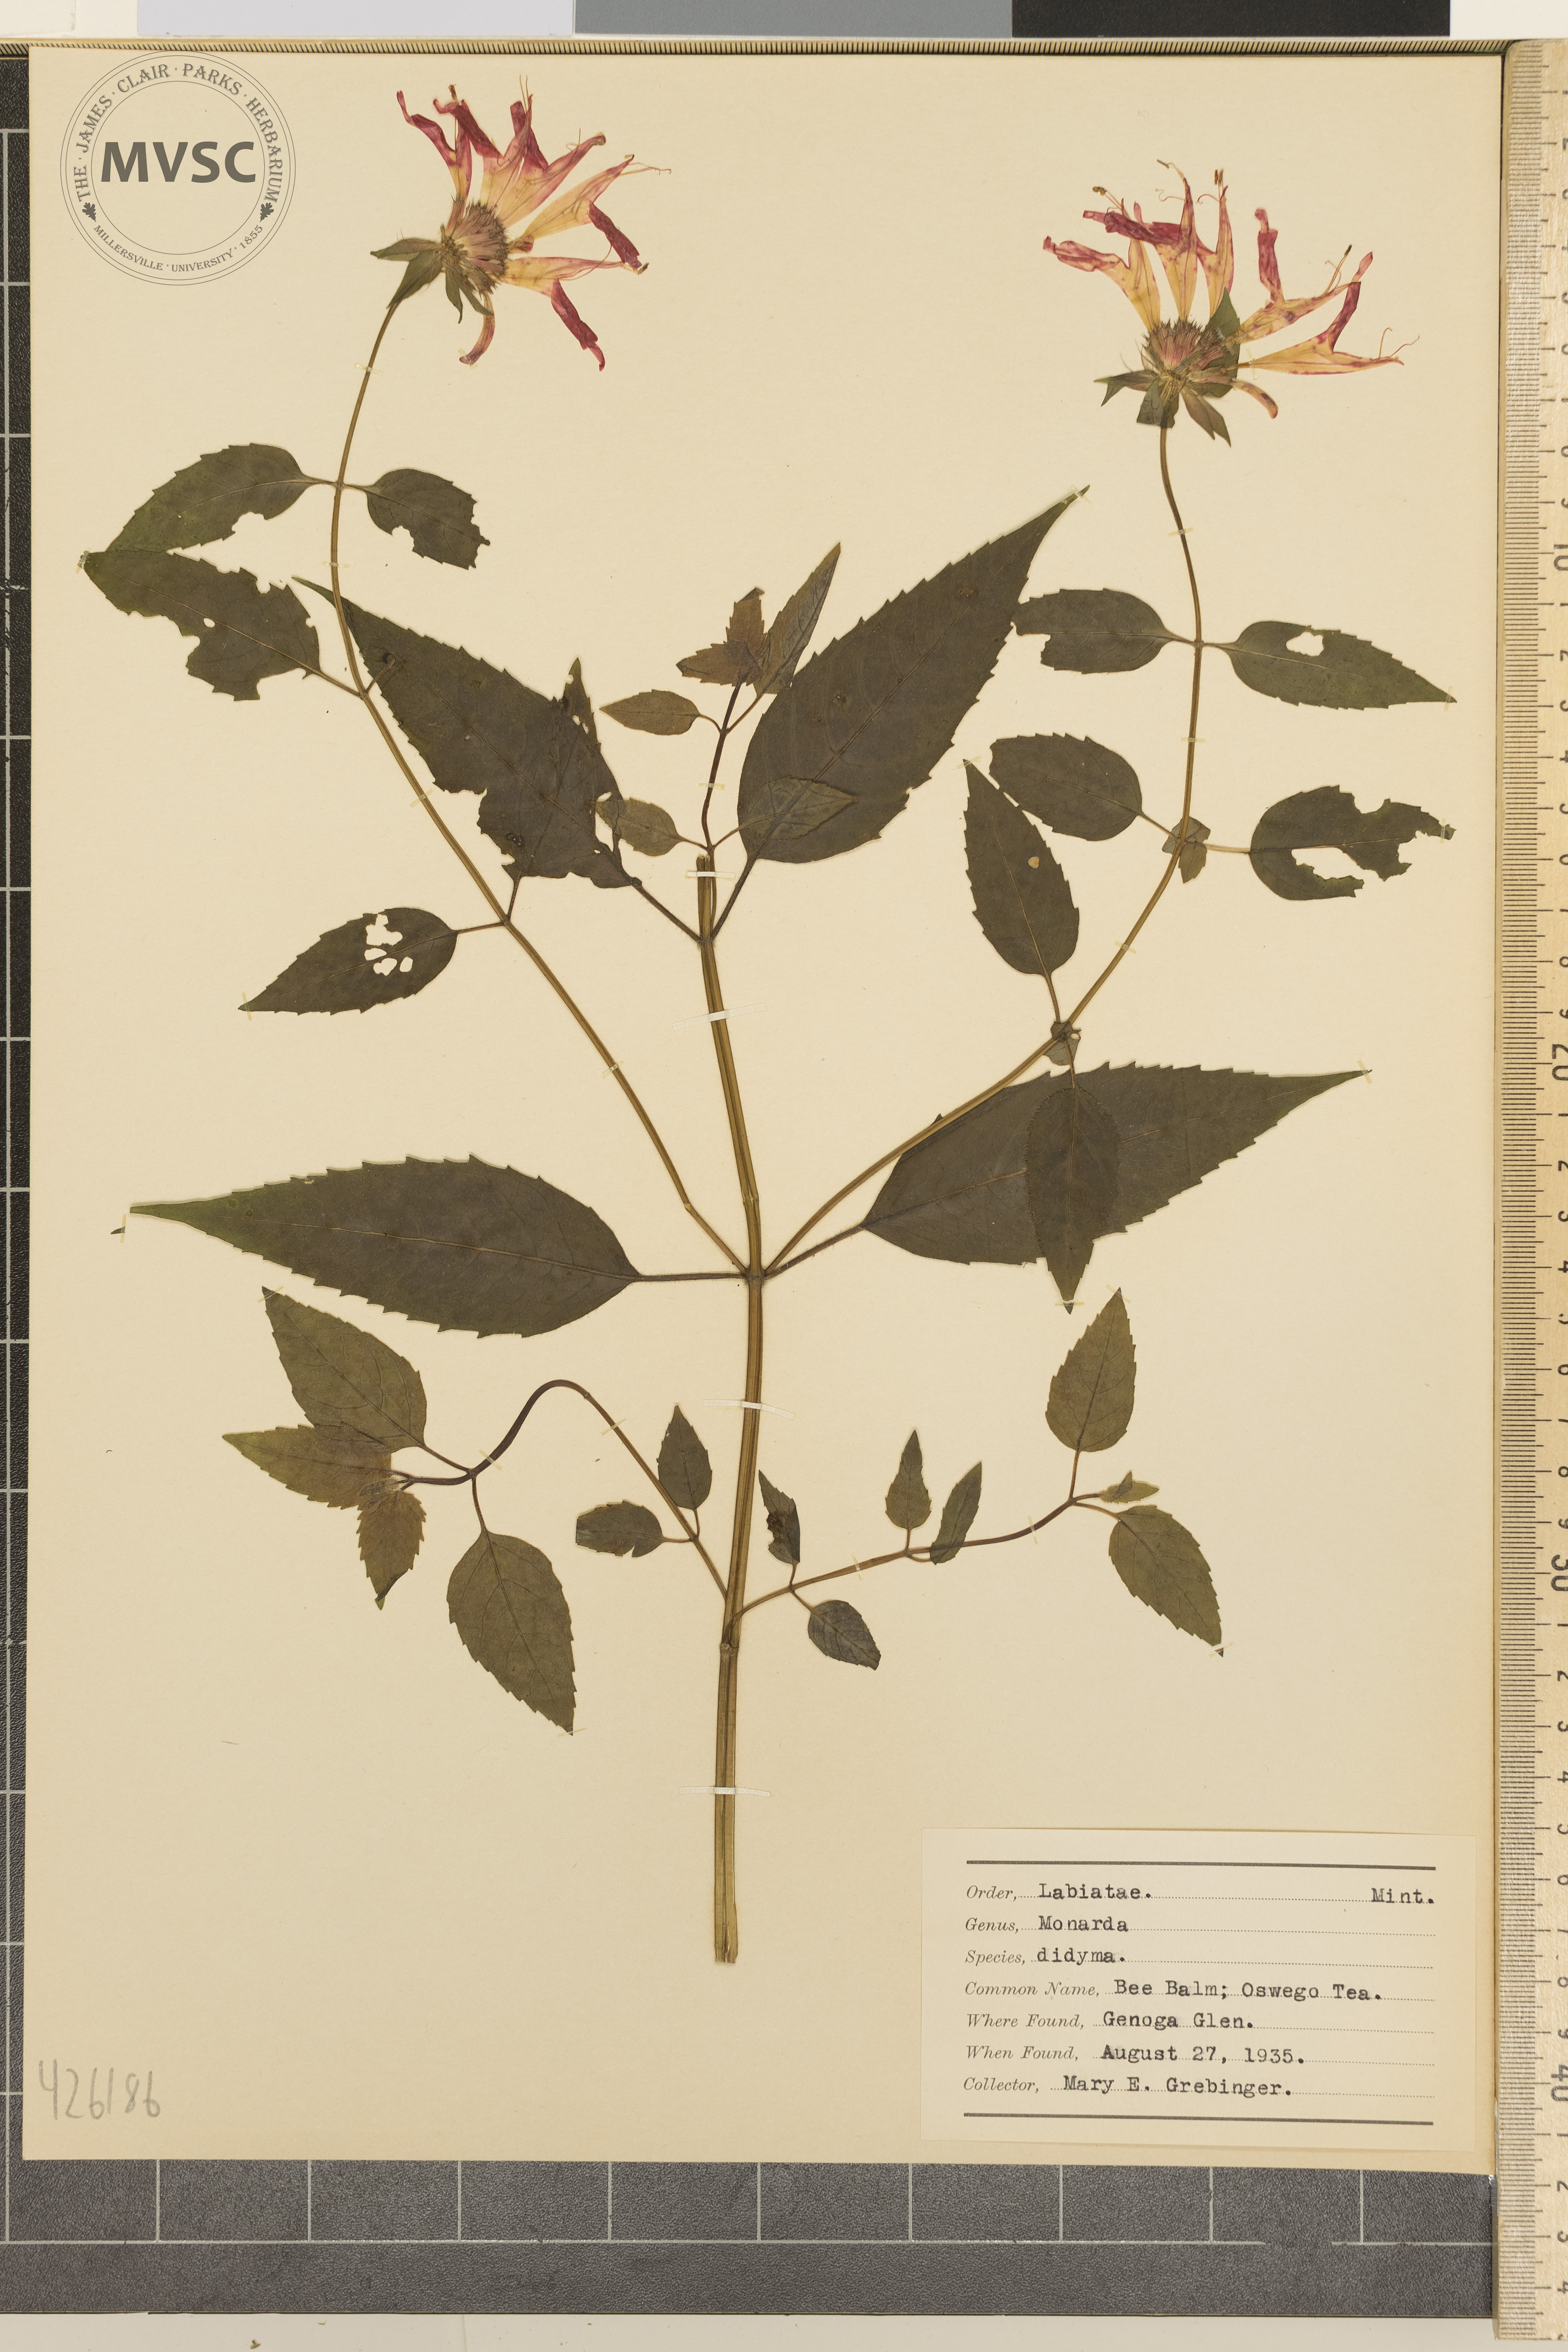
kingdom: Plantae
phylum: Tracheophyta
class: Magnoliopsida
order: Lamiales
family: Lamiaceae
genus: Monarda
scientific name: Monarda didyma
